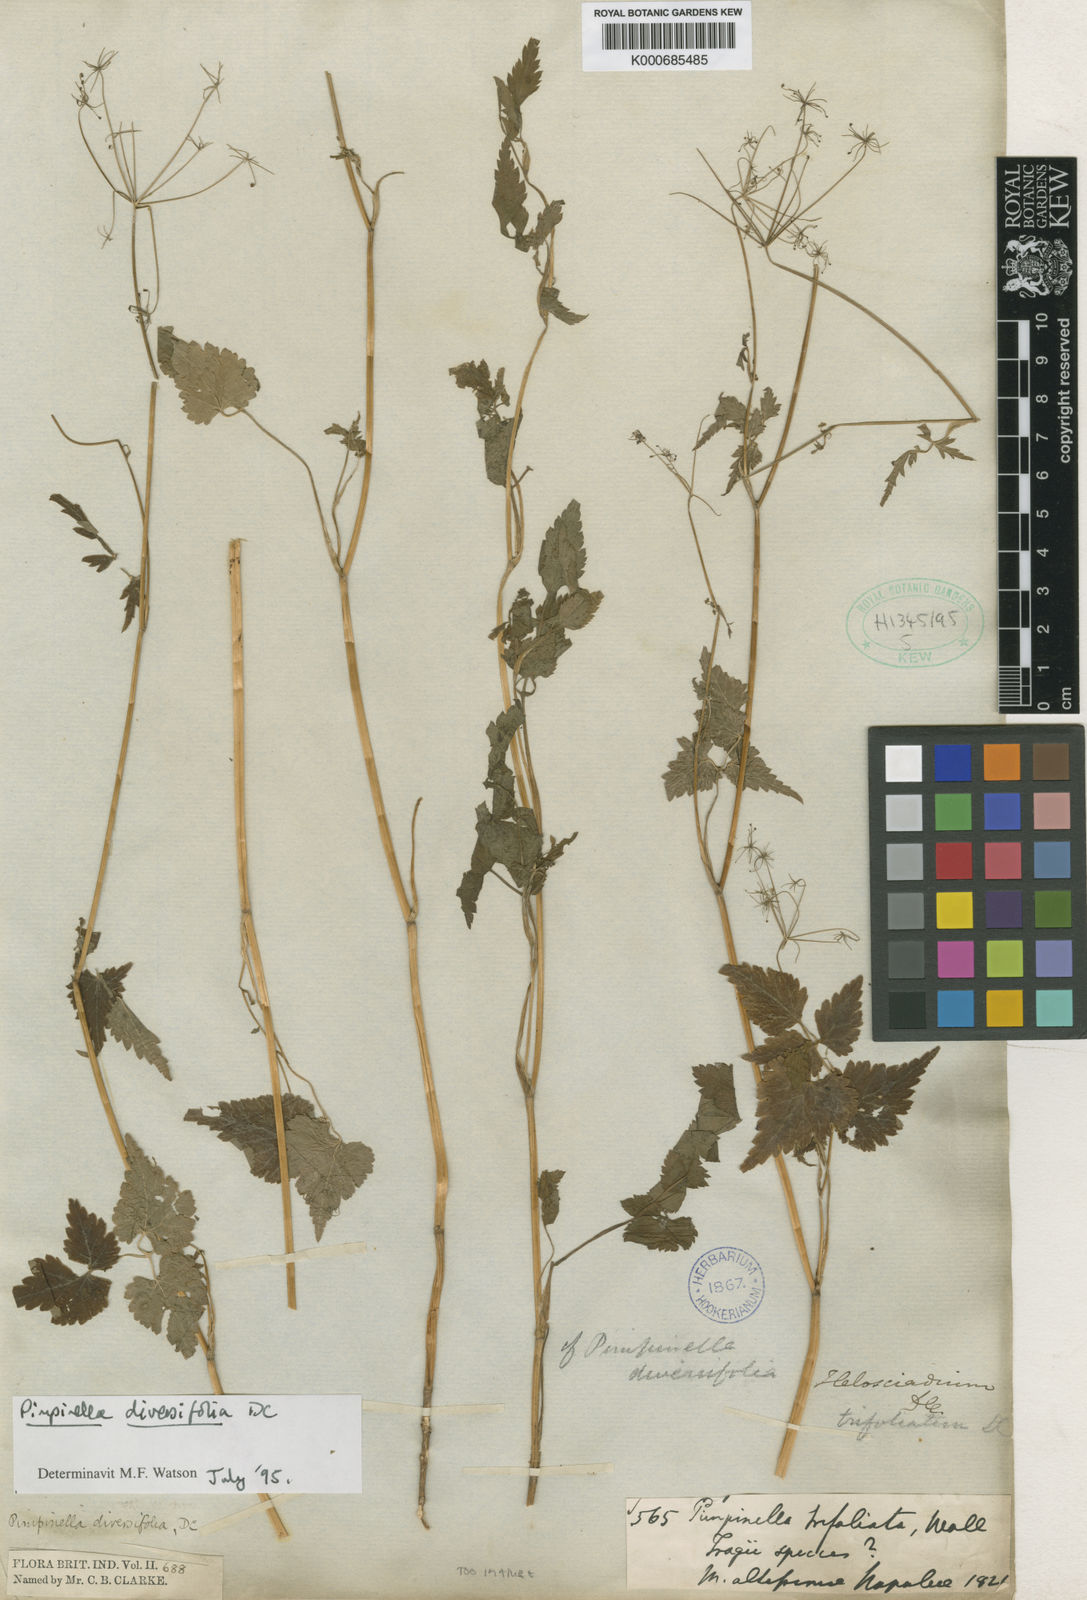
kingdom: Plantae
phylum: Tracheophyta
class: Magnoliopsida
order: Apiales
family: Apiaceae
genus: Pimpinella
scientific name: Pimpinella diversifolia
